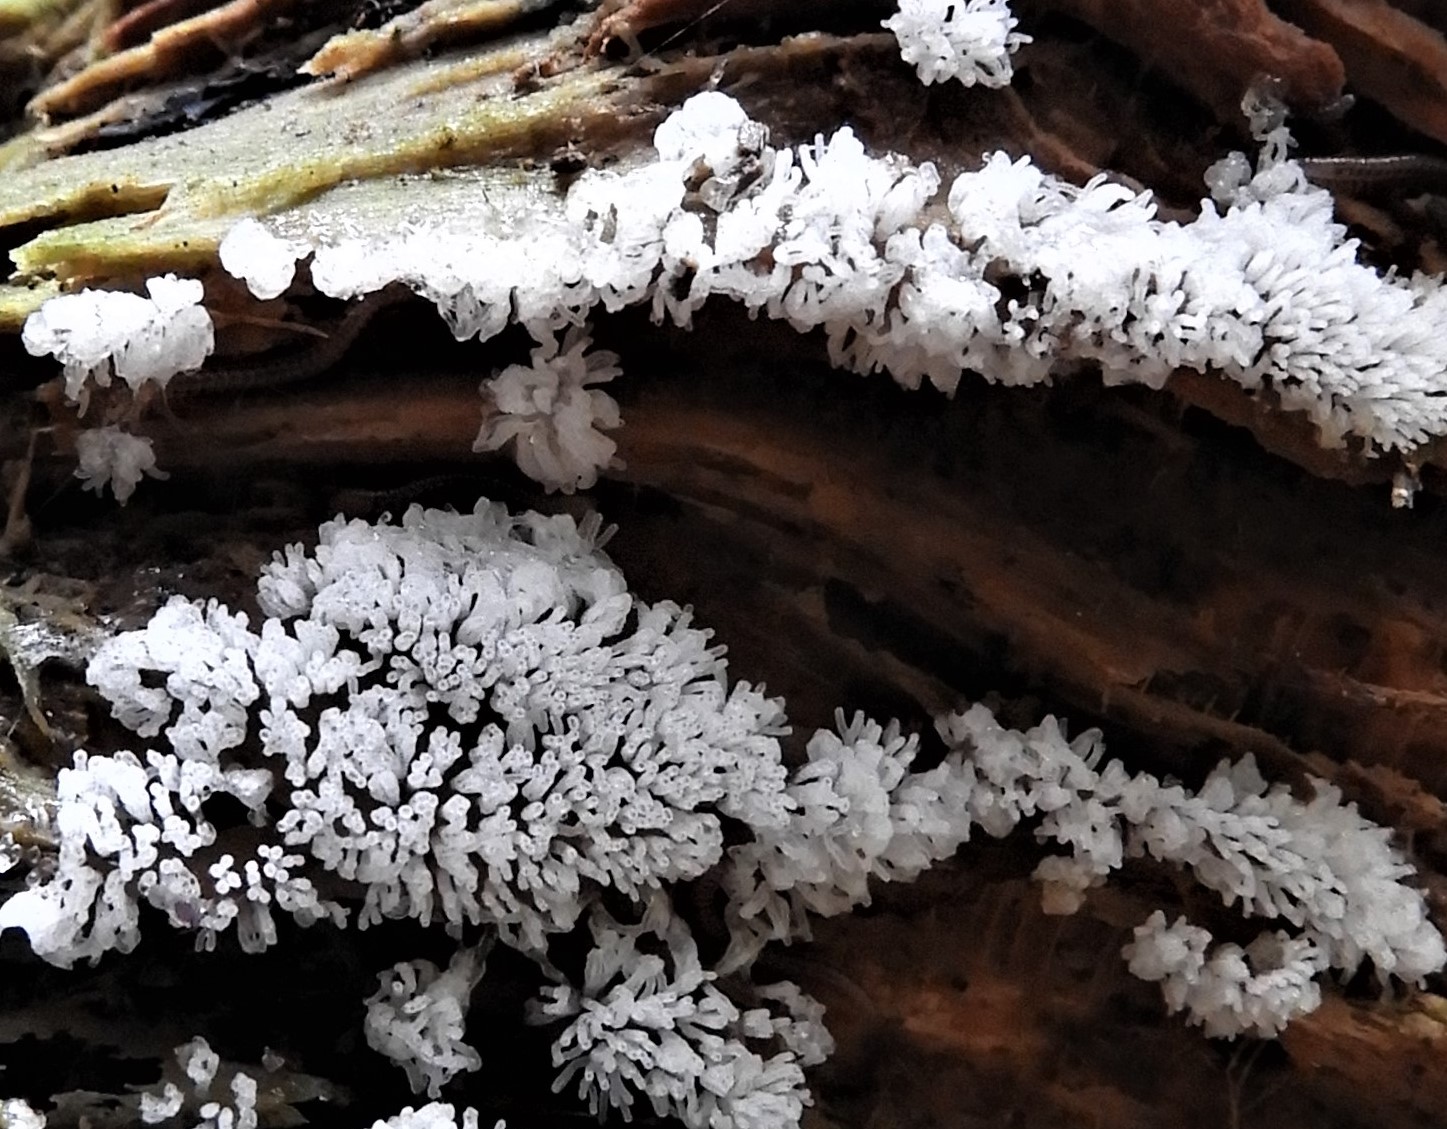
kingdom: Protozoa
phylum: Mycetozoa
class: Protosteliomycetes
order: Ceratiomyxales
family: Ceratiomyxaceae
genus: Ceratiomyxa
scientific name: Ceratiomyxa fruticulosa
